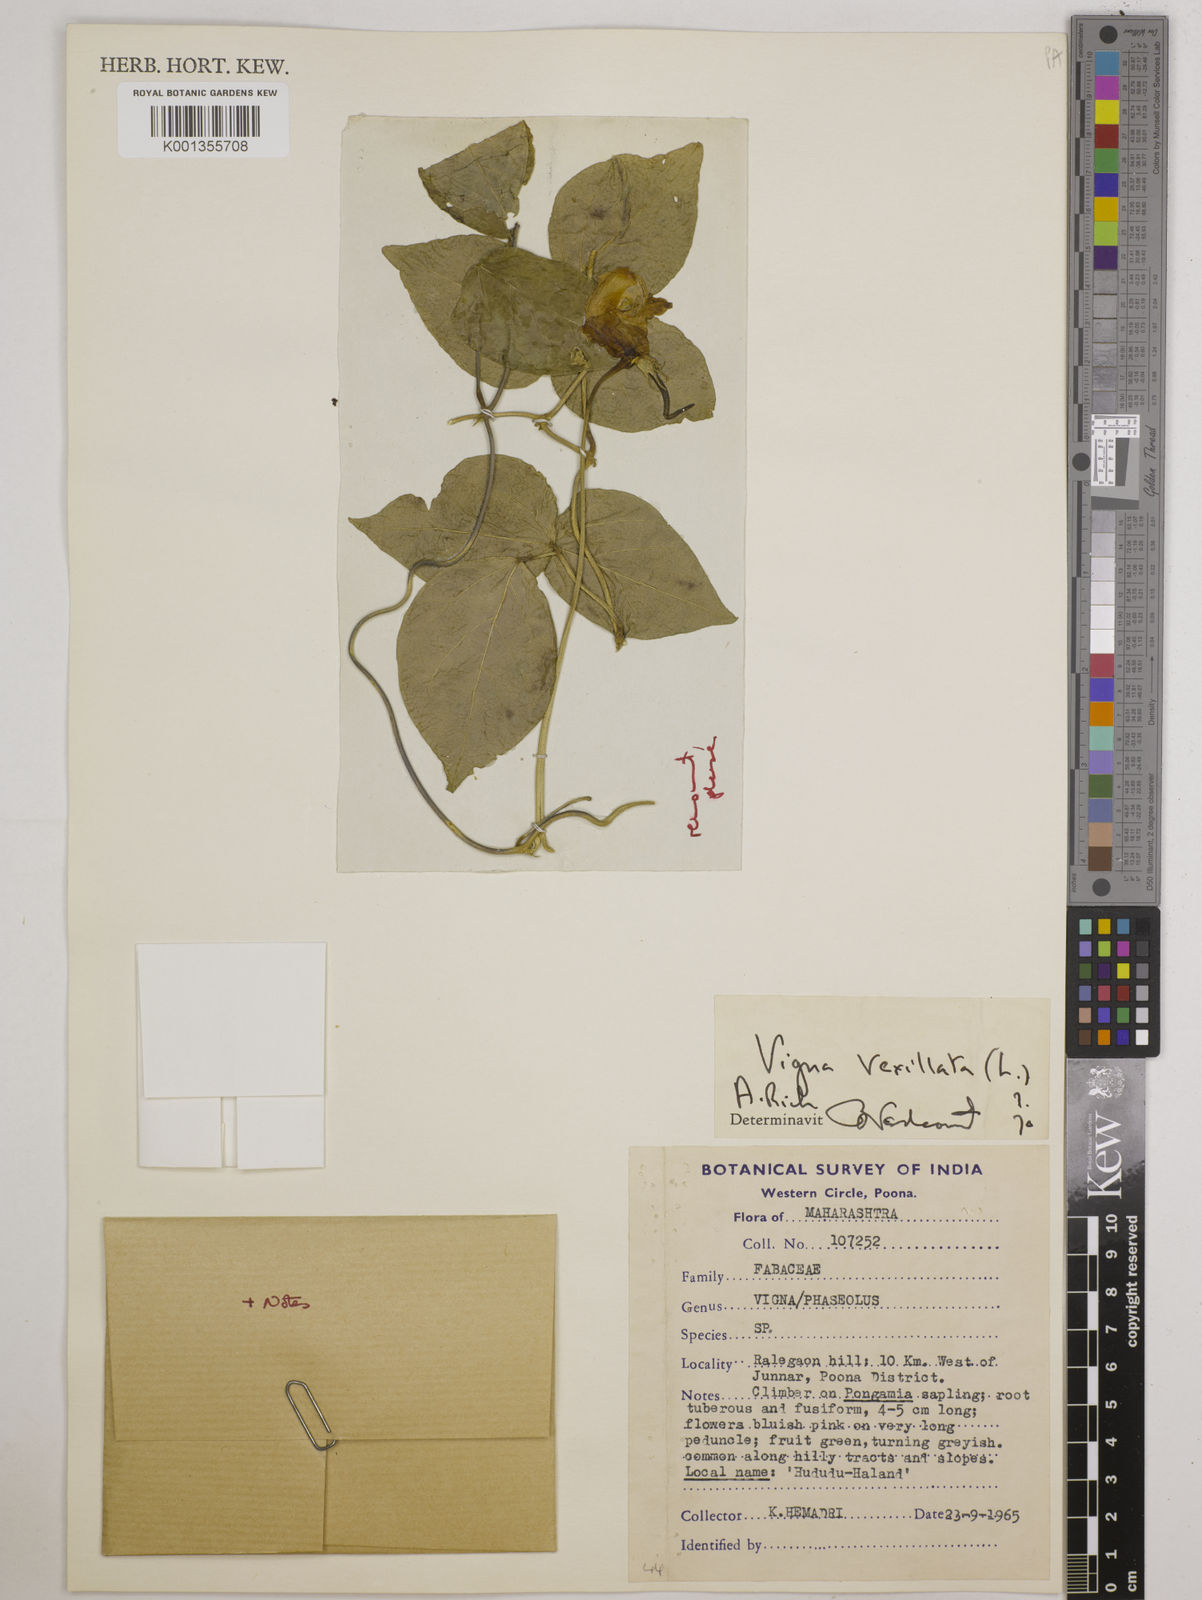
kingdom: Plantae
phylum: Tracheophyta
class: Magnoliopsida
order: Fabales
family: Fabaceae
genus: Vigna
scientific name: Vigna vexillata
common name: Zombi pea
